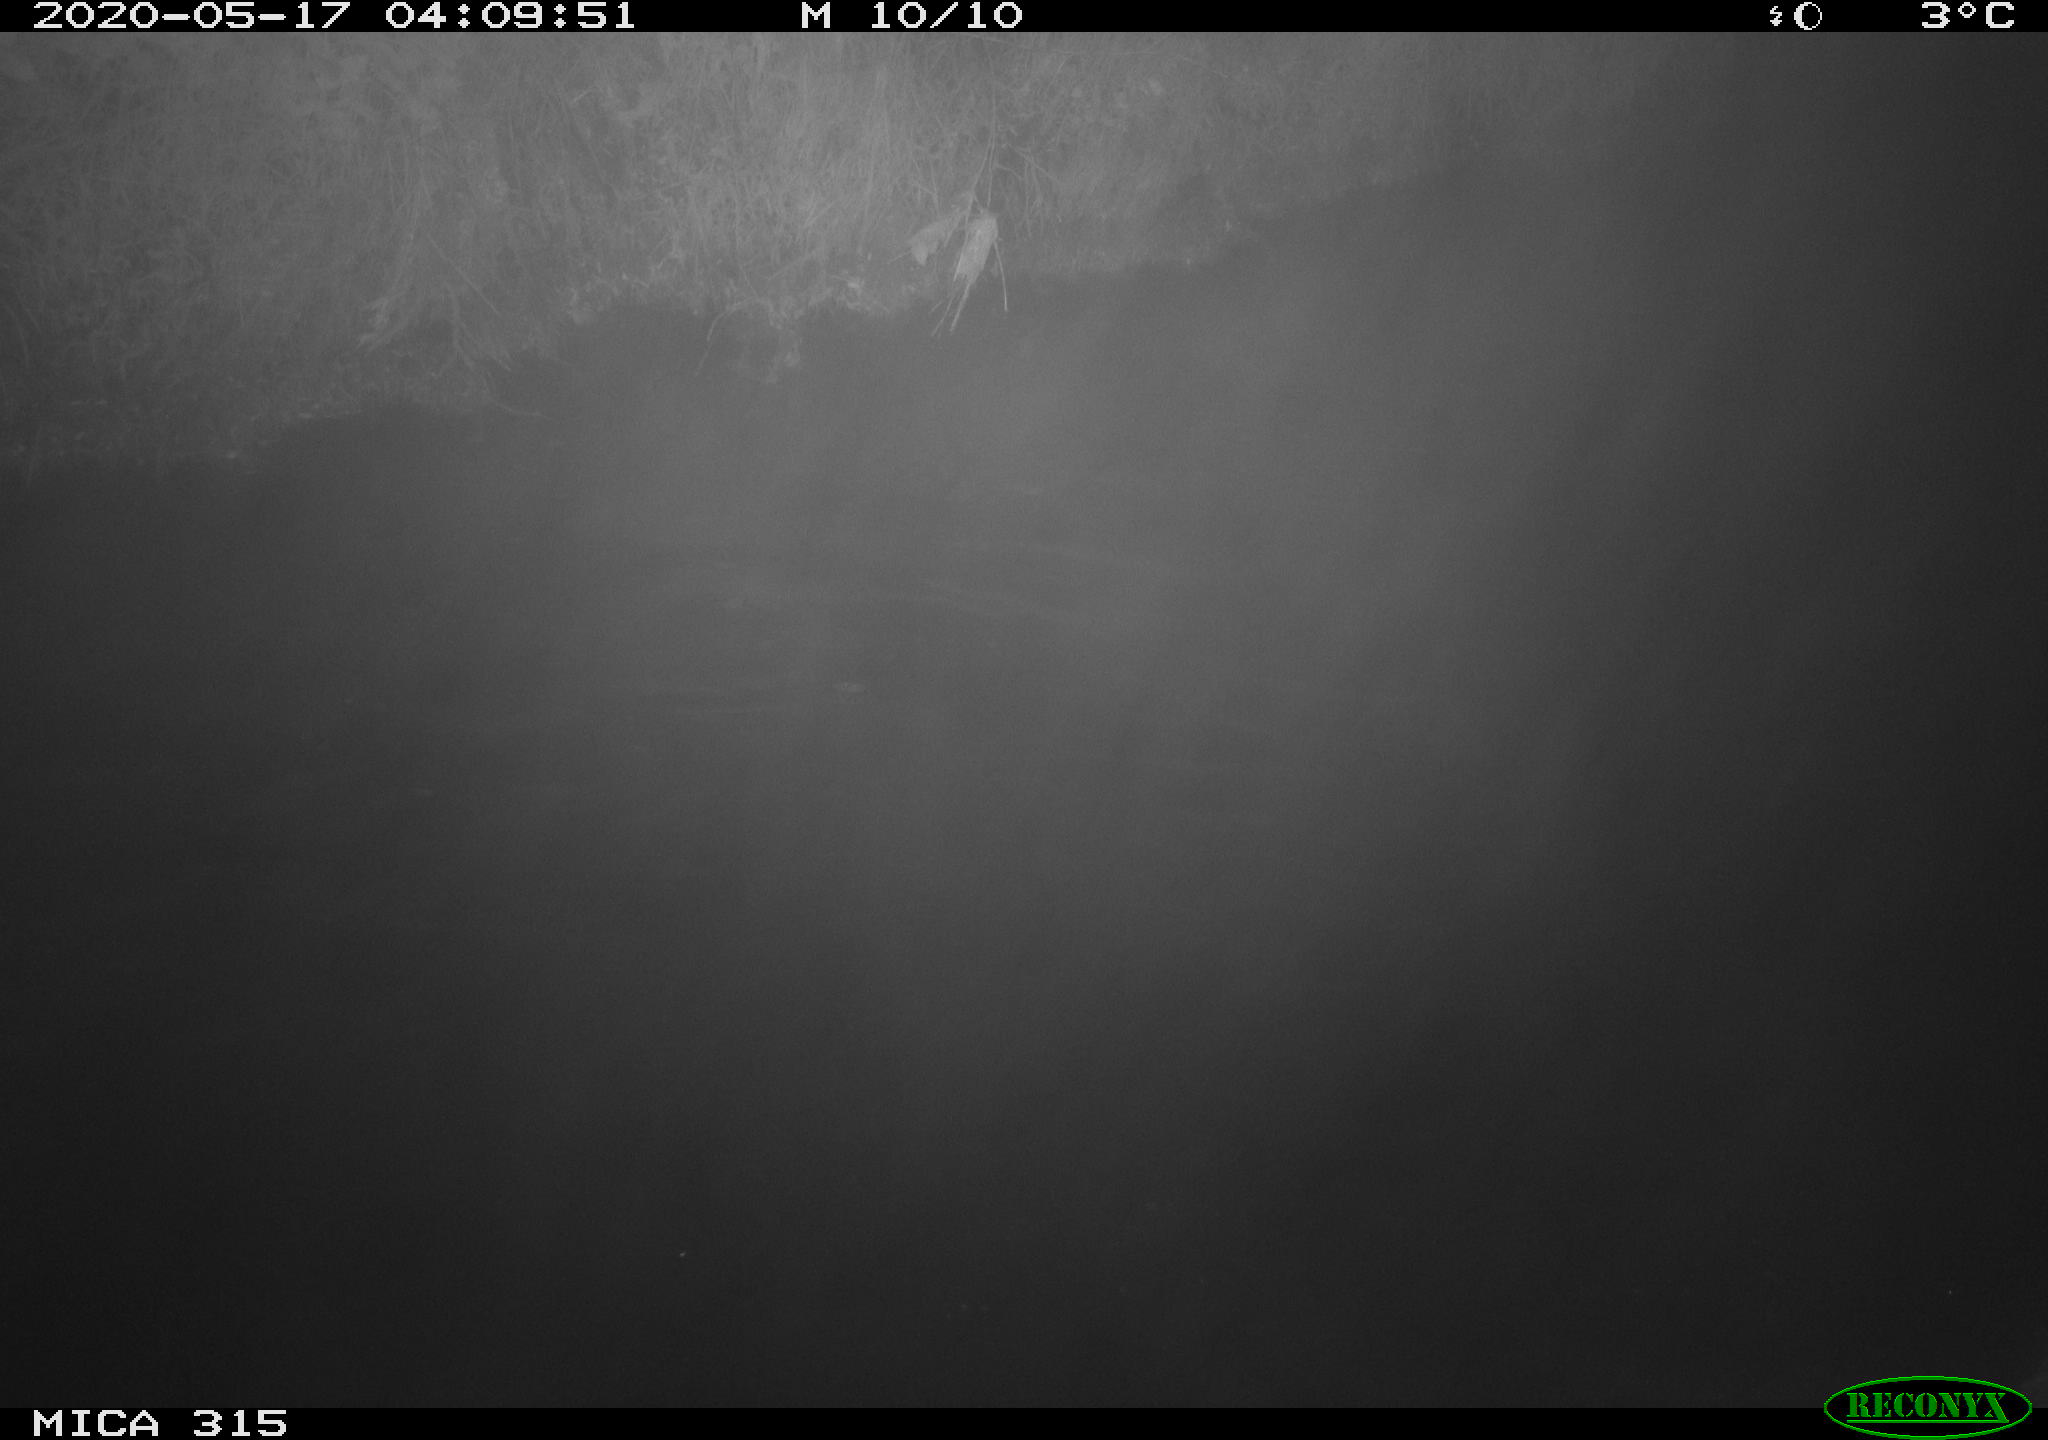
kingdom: Animalia
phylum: Chordata
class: Aves
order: Anseriformes
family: Anatidae
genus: Anas
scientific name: Anas platyrhynchos
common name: Mallard
